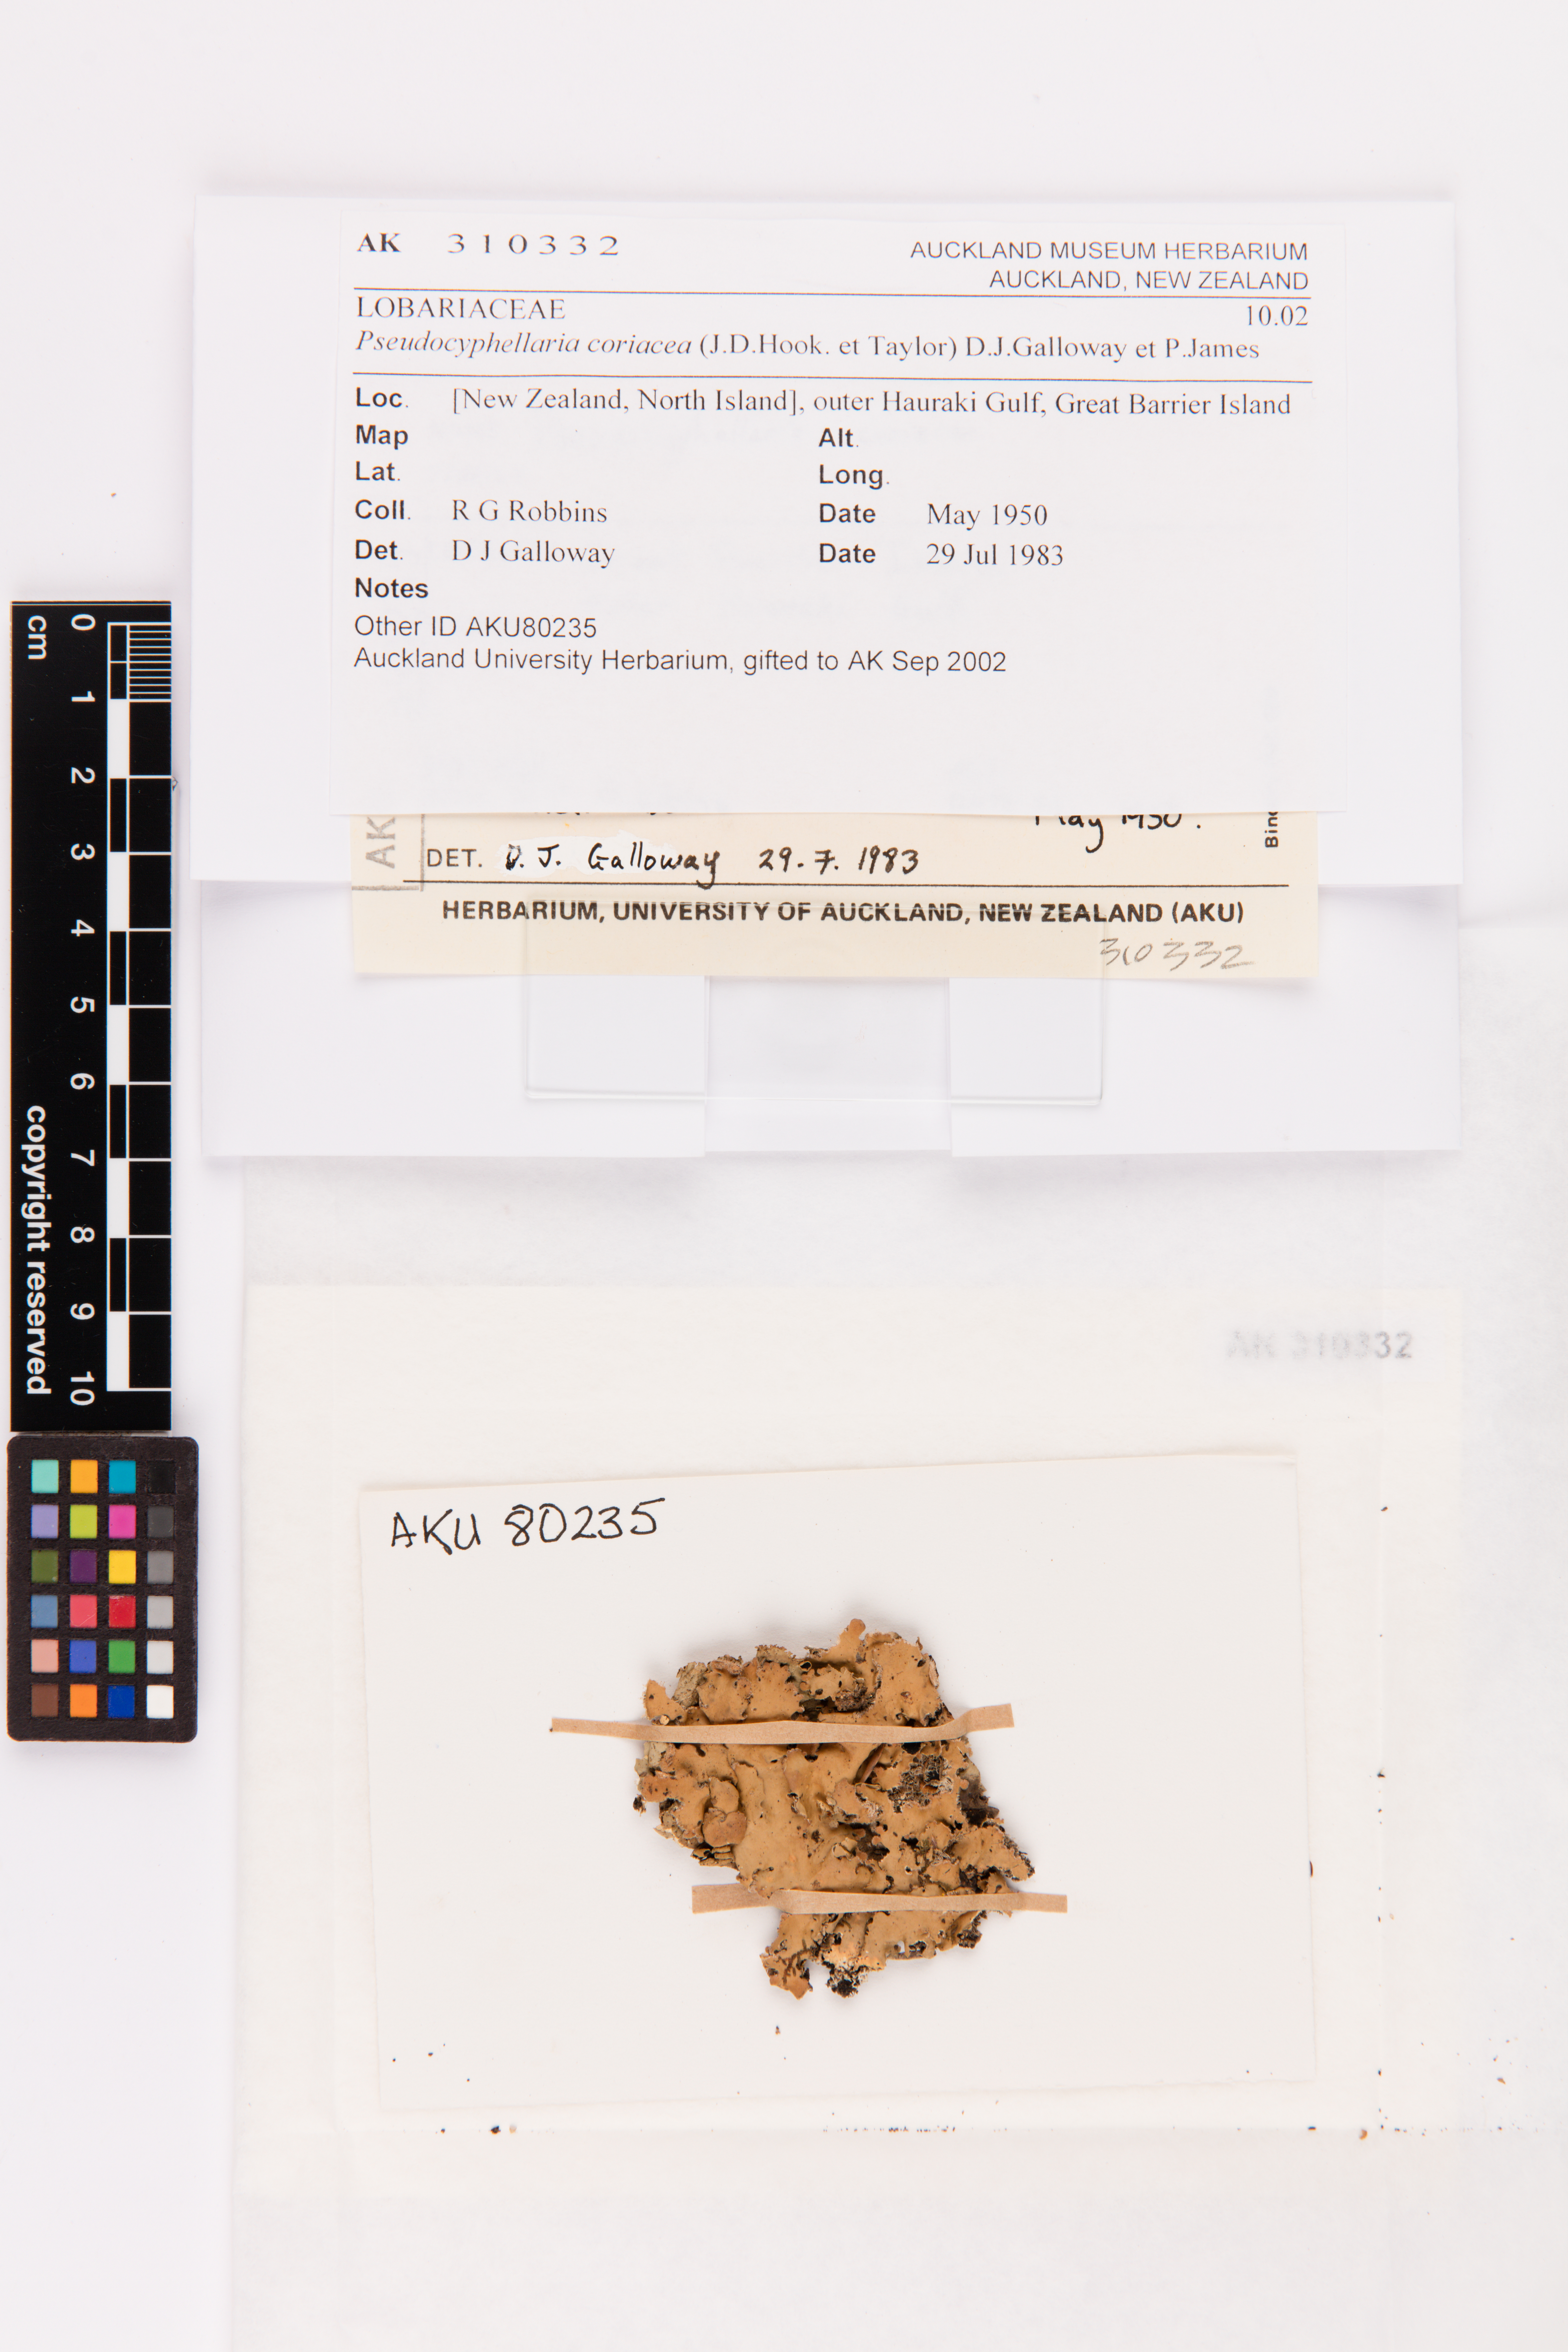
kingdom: Fungi
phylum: Ascomycota
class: Lecanoromycetes
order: Peltigerales
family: Lobariaceae
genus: Pseudocyphellaria
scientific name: Pseudocyphellaria coriacea
